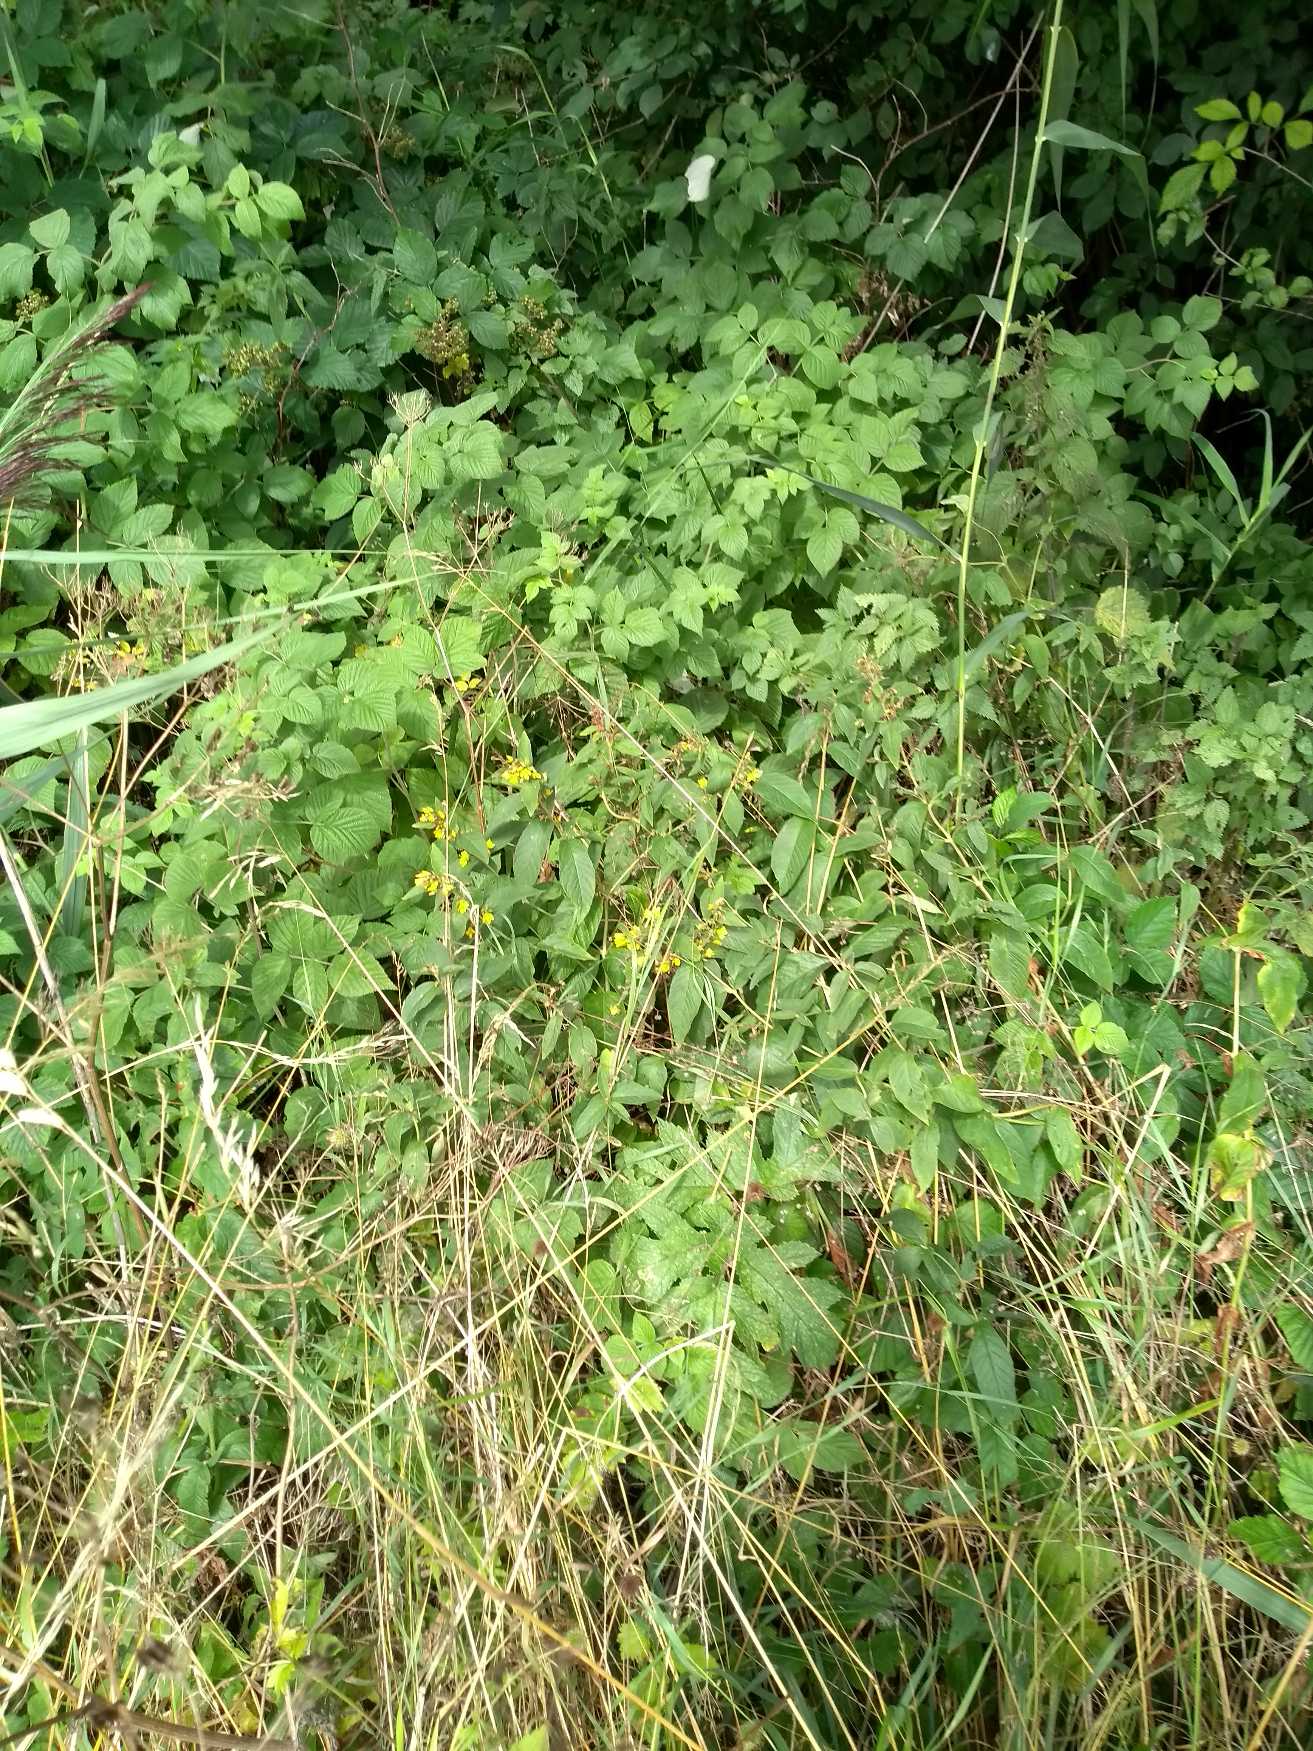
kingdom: Plantae
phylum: Tracheophyta
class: Magnoliopsida
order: Ericales
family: Primulaceae
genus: Lysimachia
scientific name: Lysimachia vulgaris
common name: Almindelig fredløs
